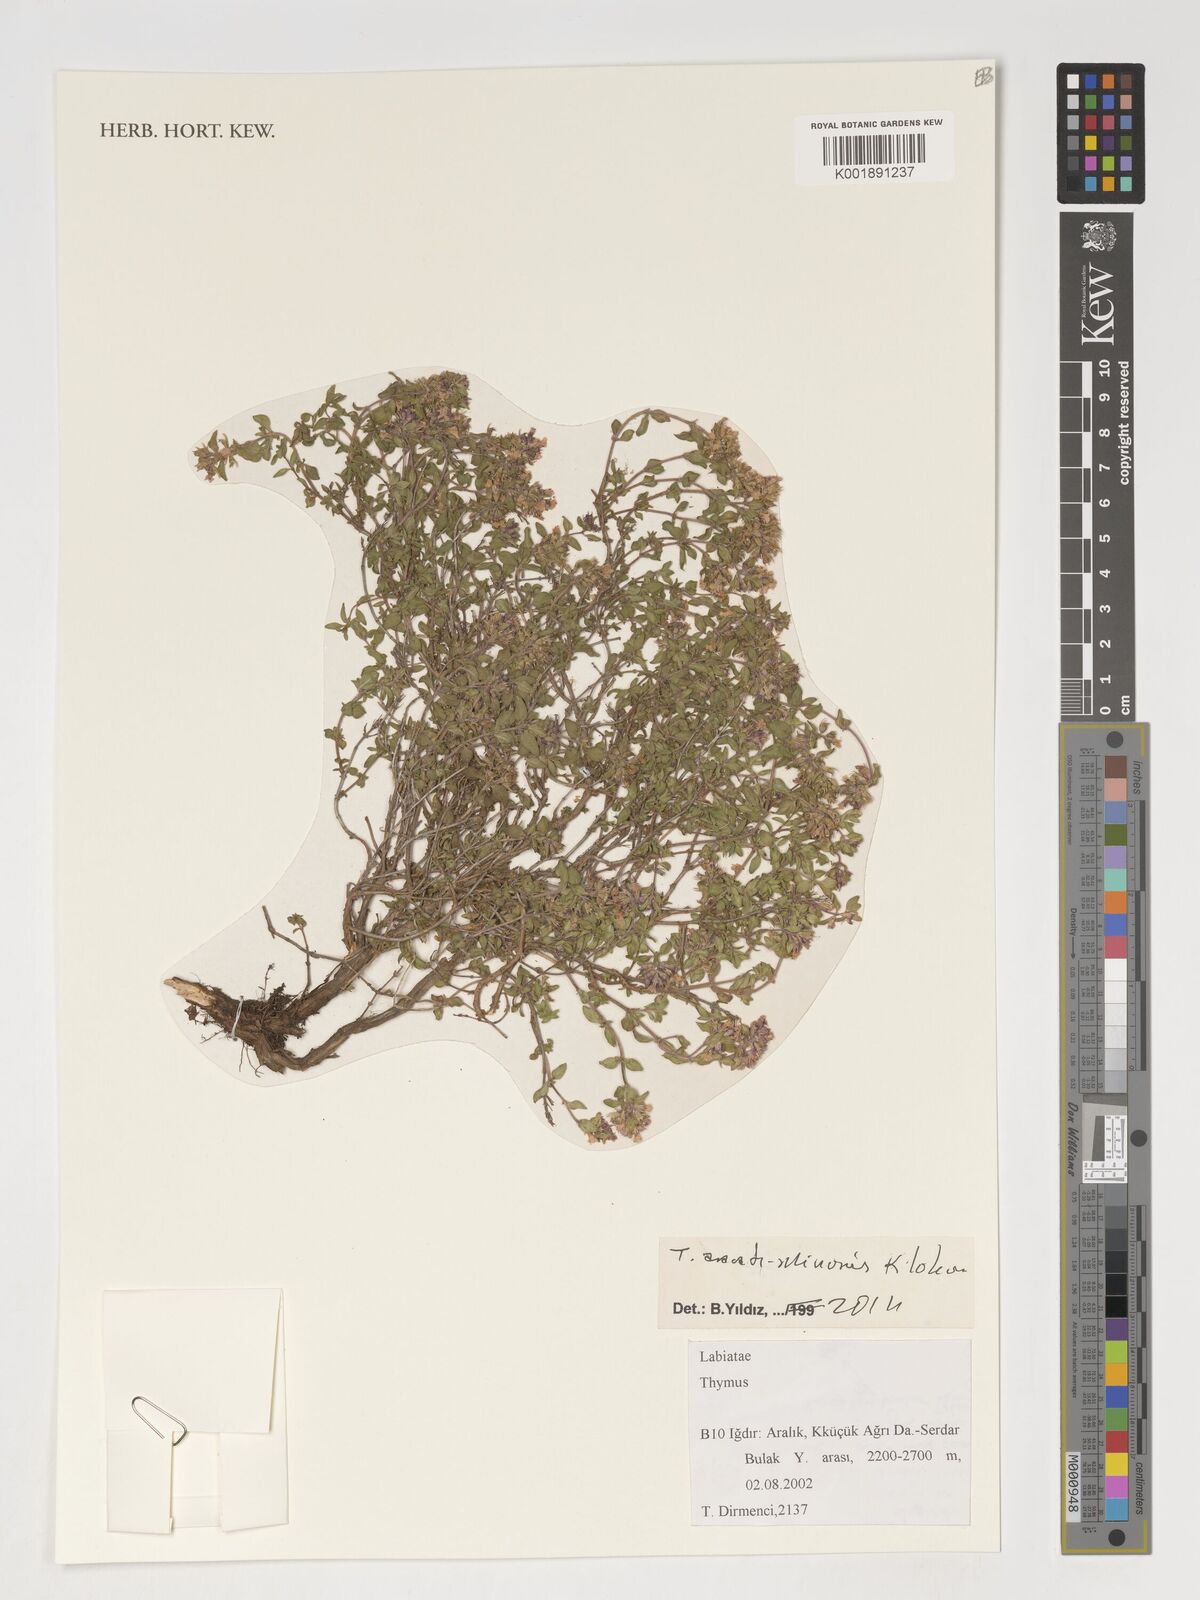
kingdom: Plantae
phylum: Tracheophyta
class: Magnoliopsida
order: Lamiales
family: Lamiaceae
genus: Thymus
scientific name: Thymus fedtschenkoi
